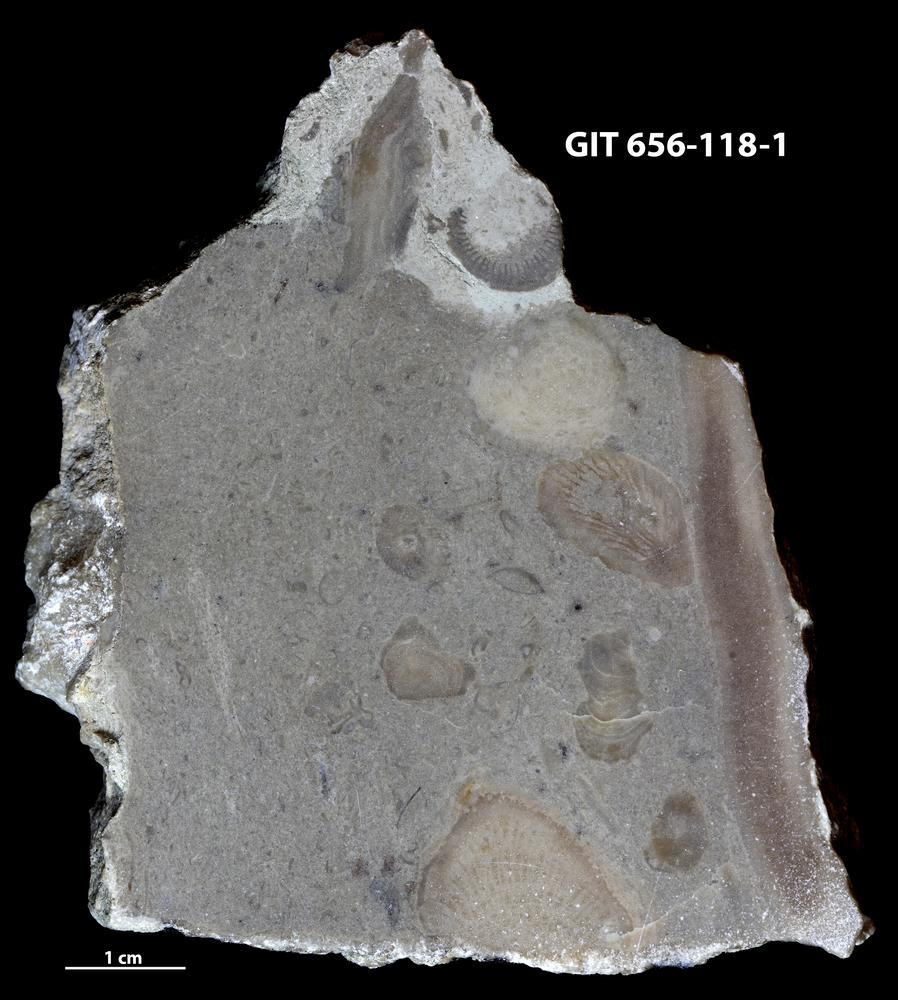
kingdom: Animalia
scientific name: Animalia
